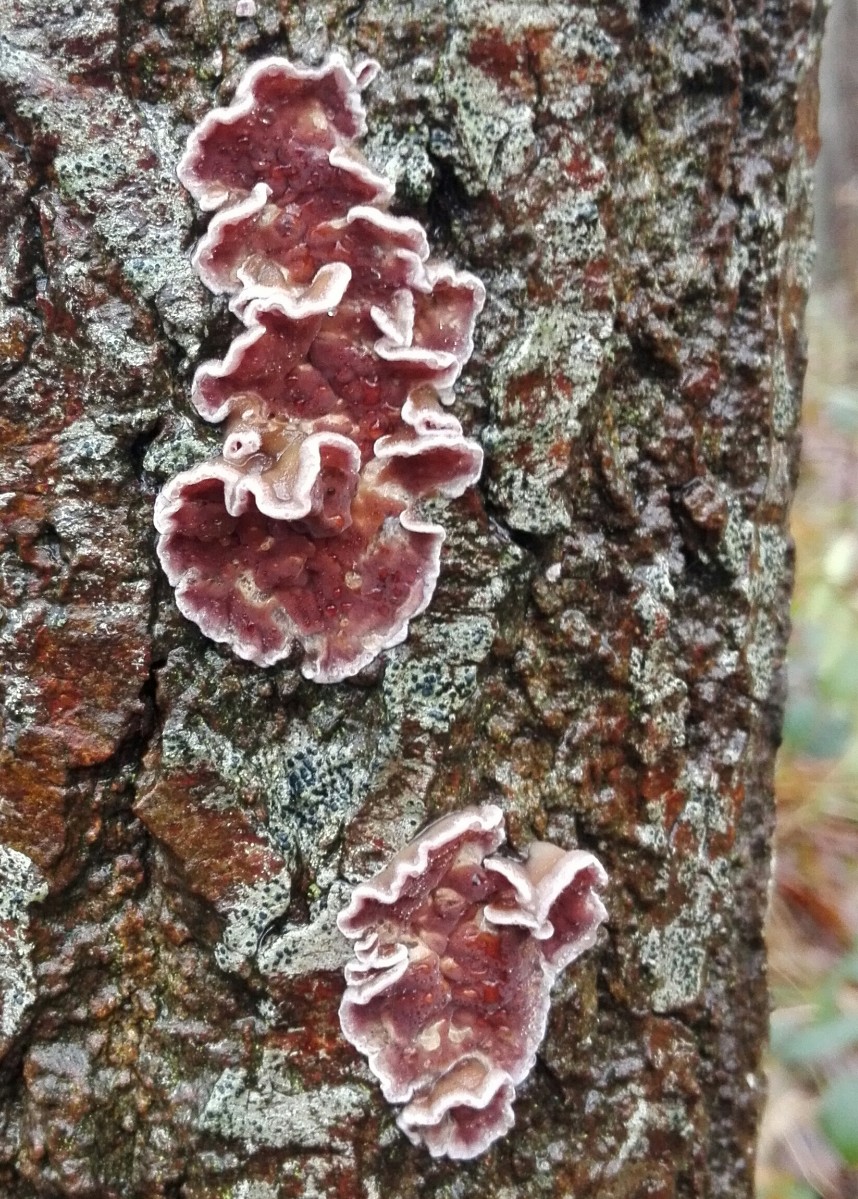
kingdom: Fungi
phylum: Basidiomycota
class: Agaricomycetes
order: Agaricales
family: Cyphellaceae
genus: Chondrostereum
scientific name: Chondrostereum purpureum
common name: purpurlædersvamp
